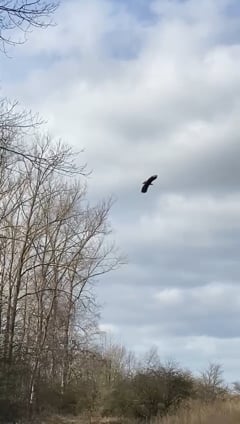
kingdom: Animalia
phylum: Chordata
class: Aves
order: Accipitriformes
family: Accipitridae
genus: Haliaeetus
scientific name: Haliaeetus albicilla
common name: White-tailed eagle
